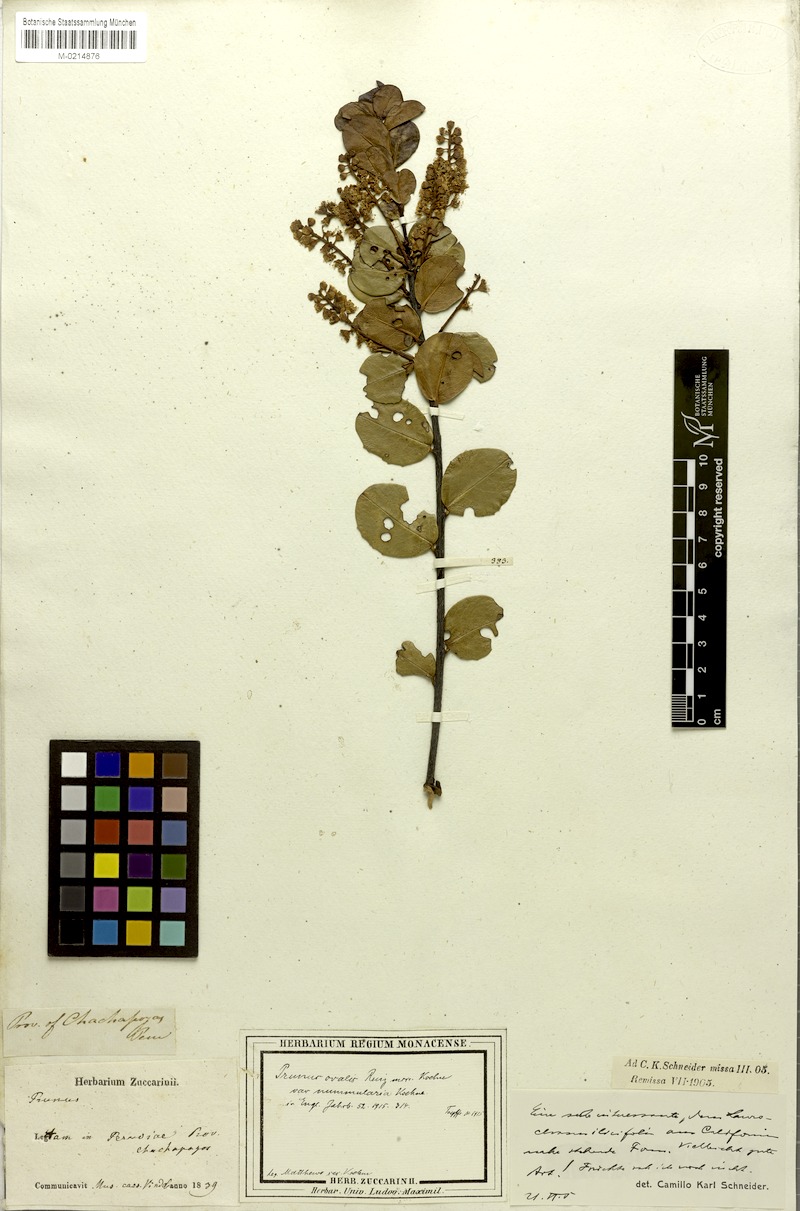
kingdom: Plantae
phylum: Tracheophyta
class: Magnoliopsida
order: Rosales
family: Rosaceae
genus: Prunus
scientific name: Prunus ovalis
